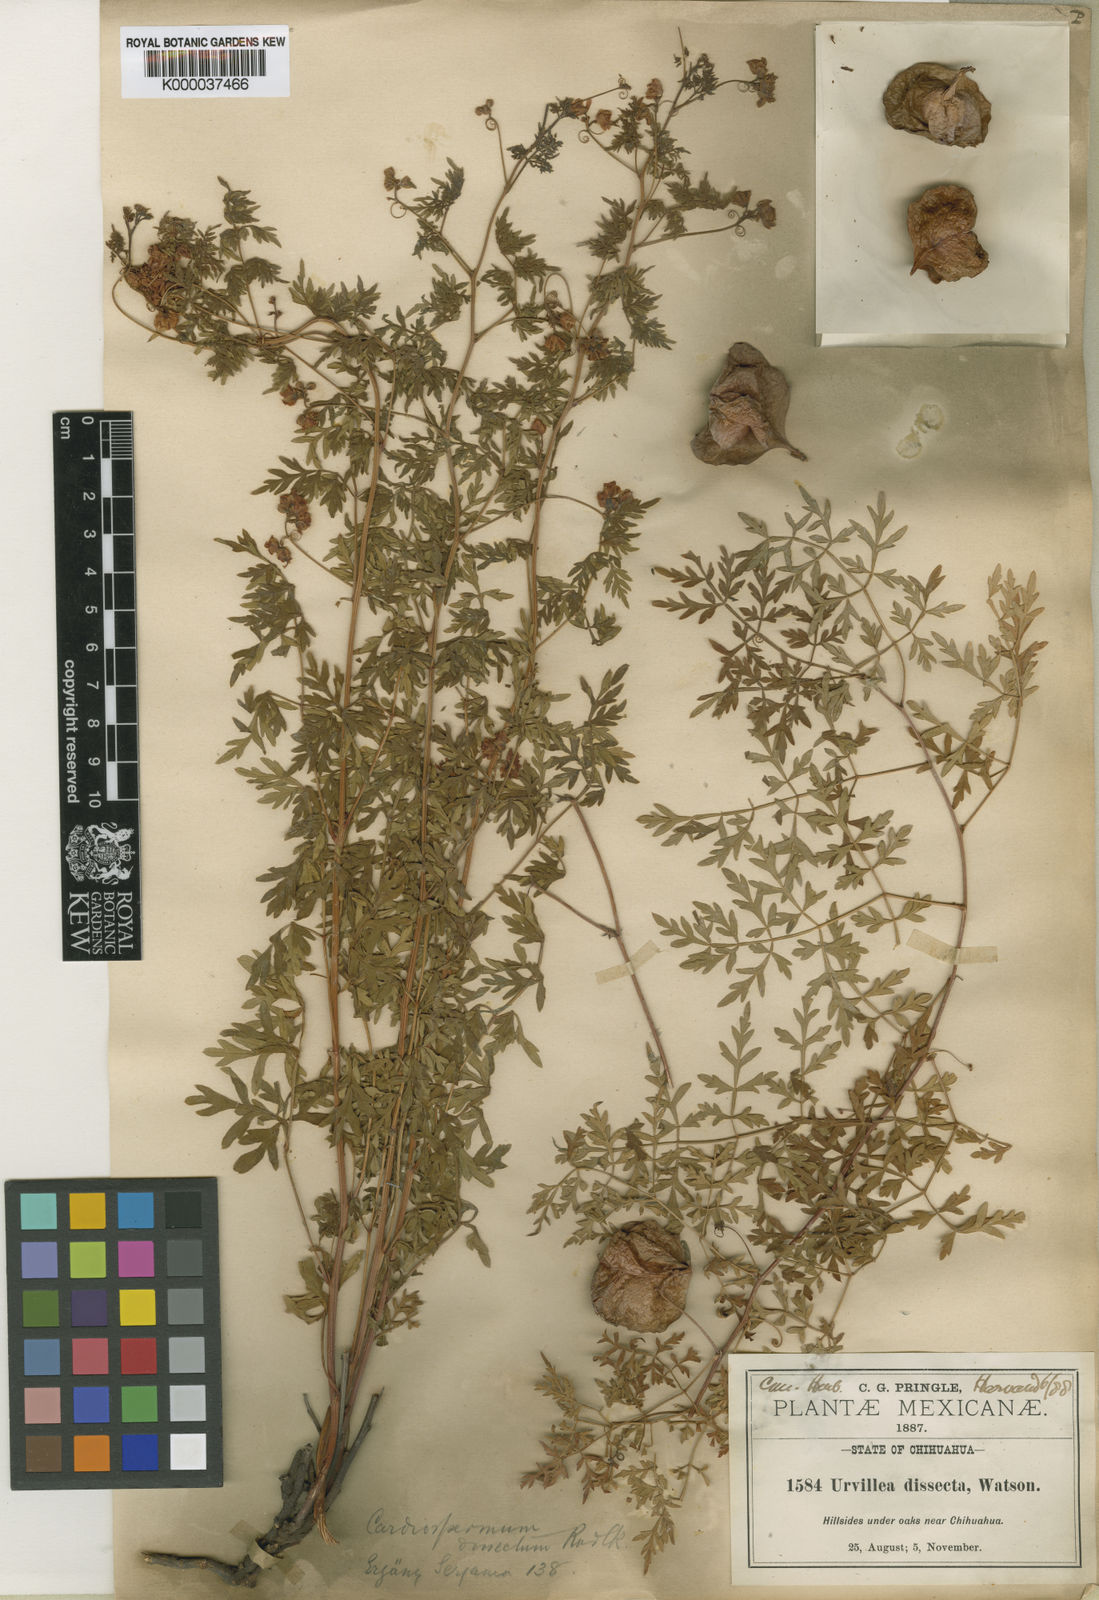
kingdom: Plantae
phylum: Tracheophyta
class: Magnoliopsida
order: Sapindales
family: Sapindaceae
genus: Serjania
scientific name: Serjania dissecta
